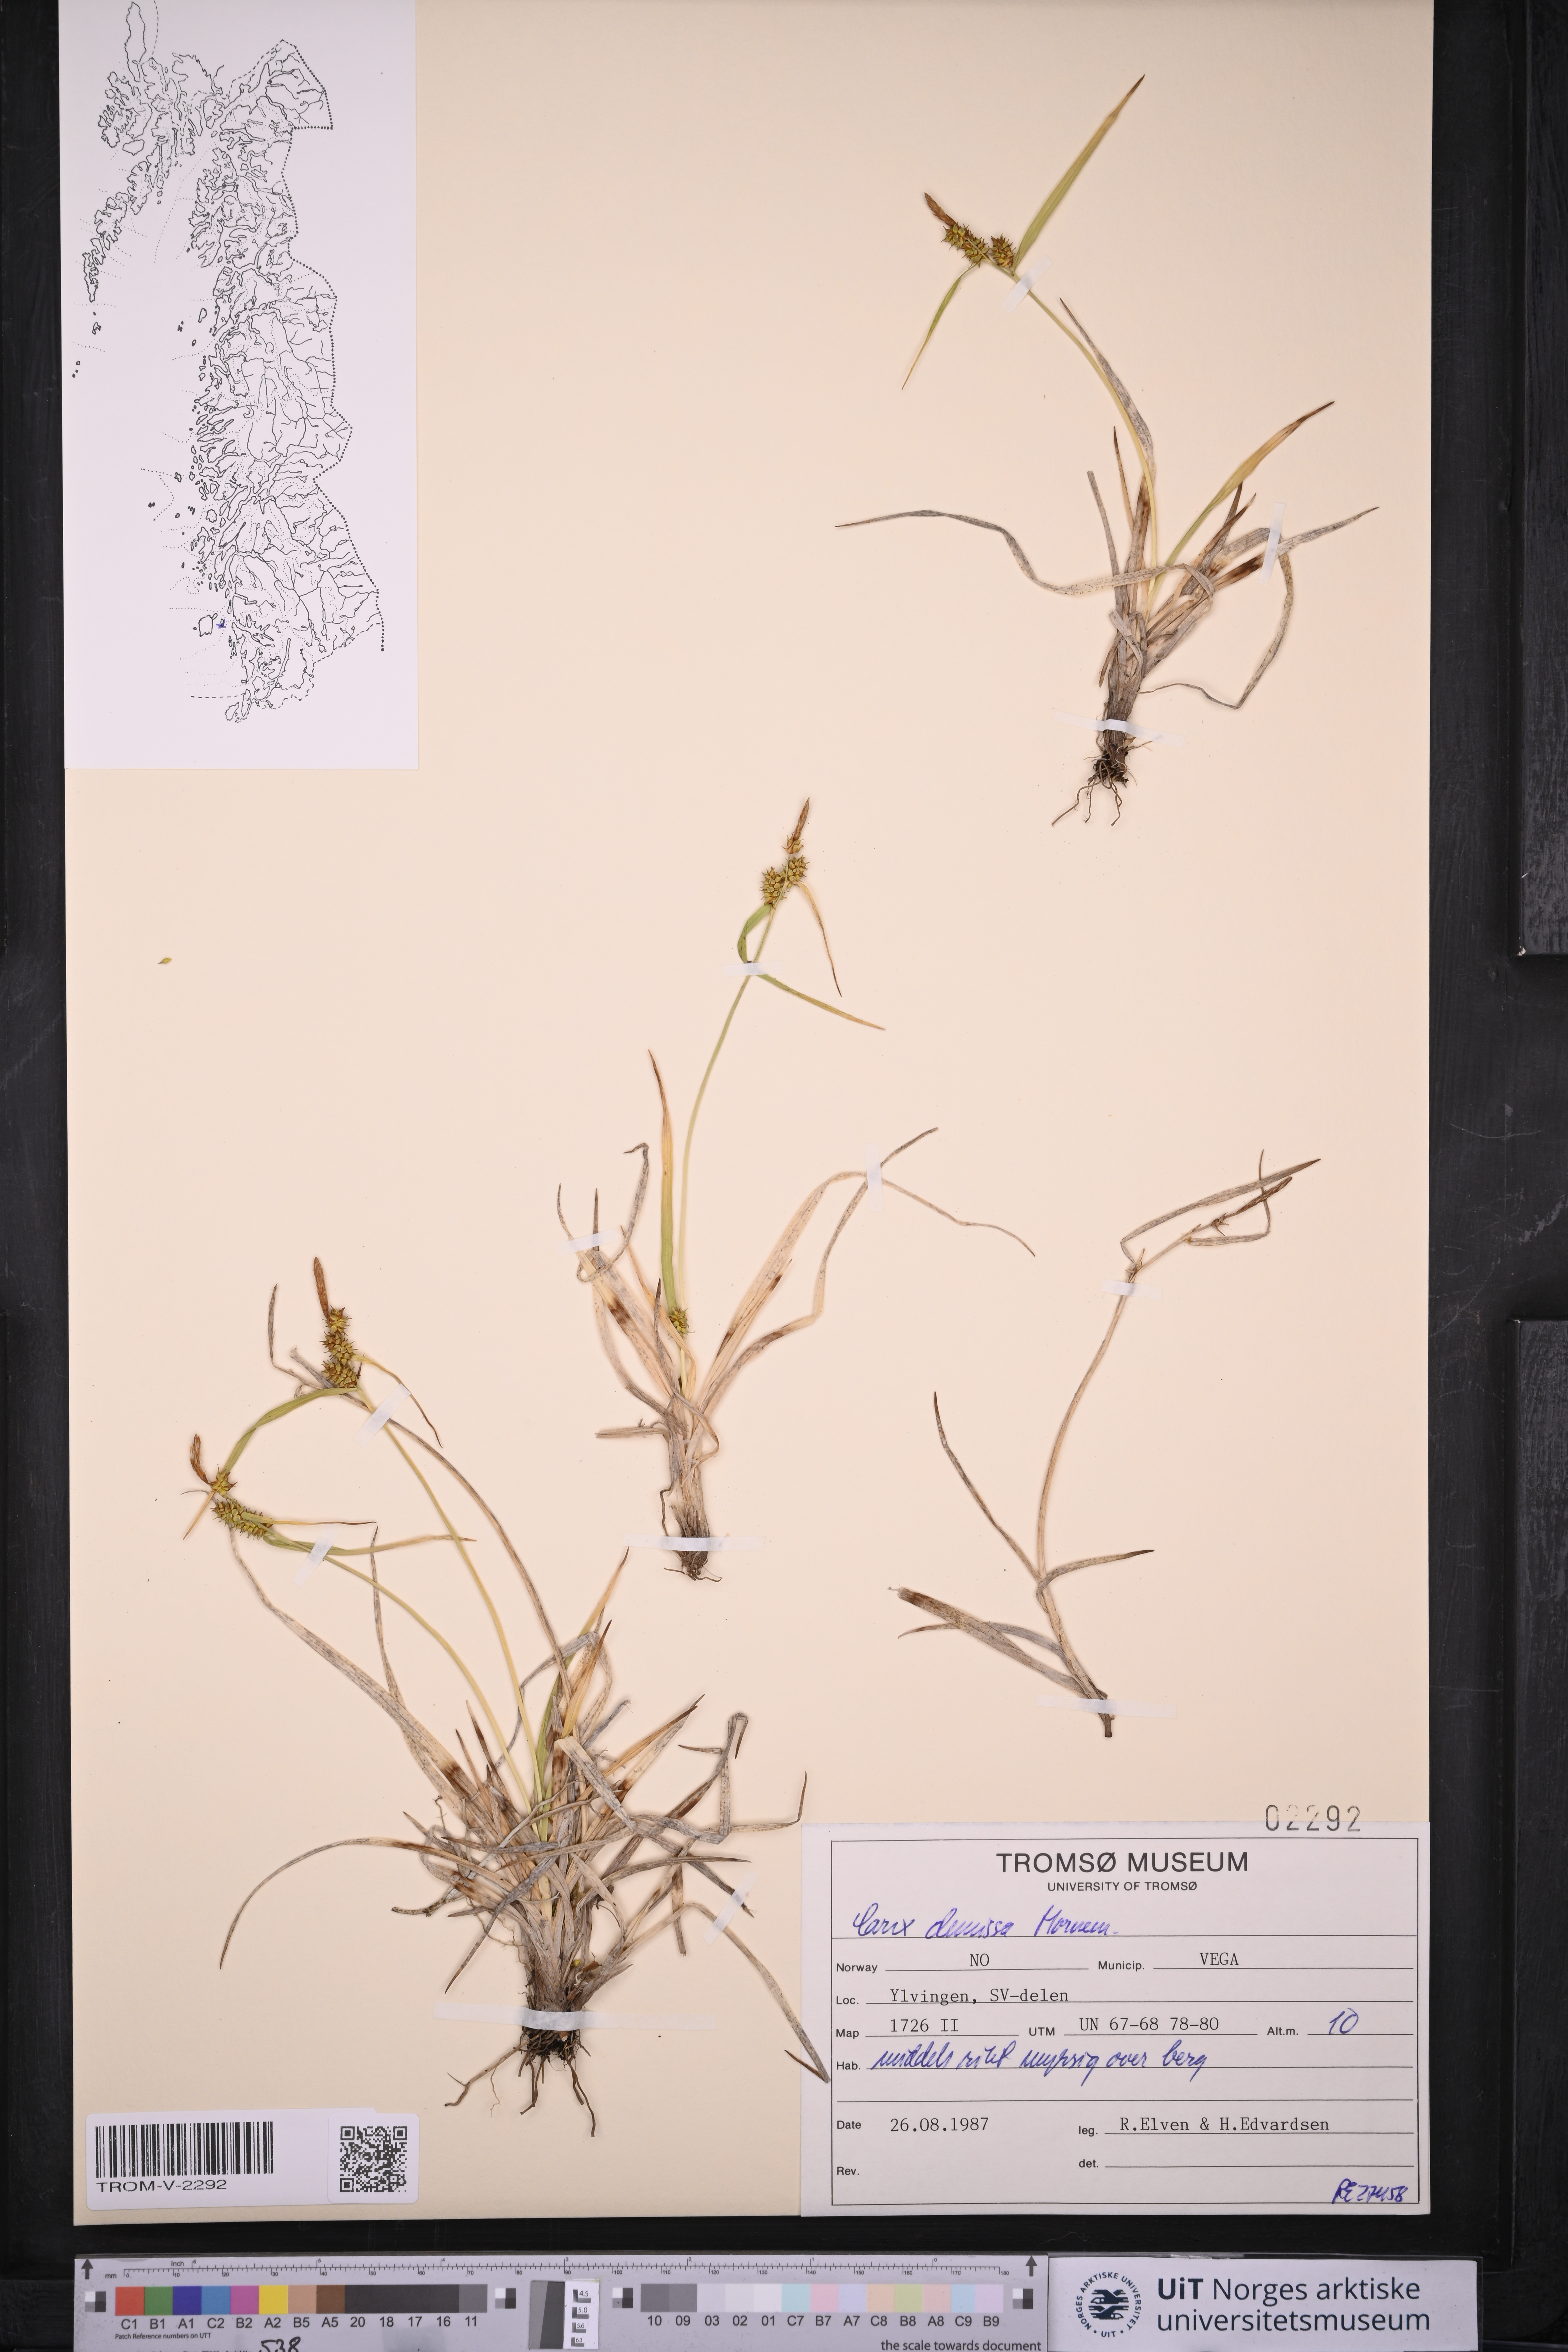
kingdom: Plantae
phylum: Tracheophyta
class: Liliopsida
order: Poales
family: Cyperaceae
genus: Carex
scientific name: Carex demissa
